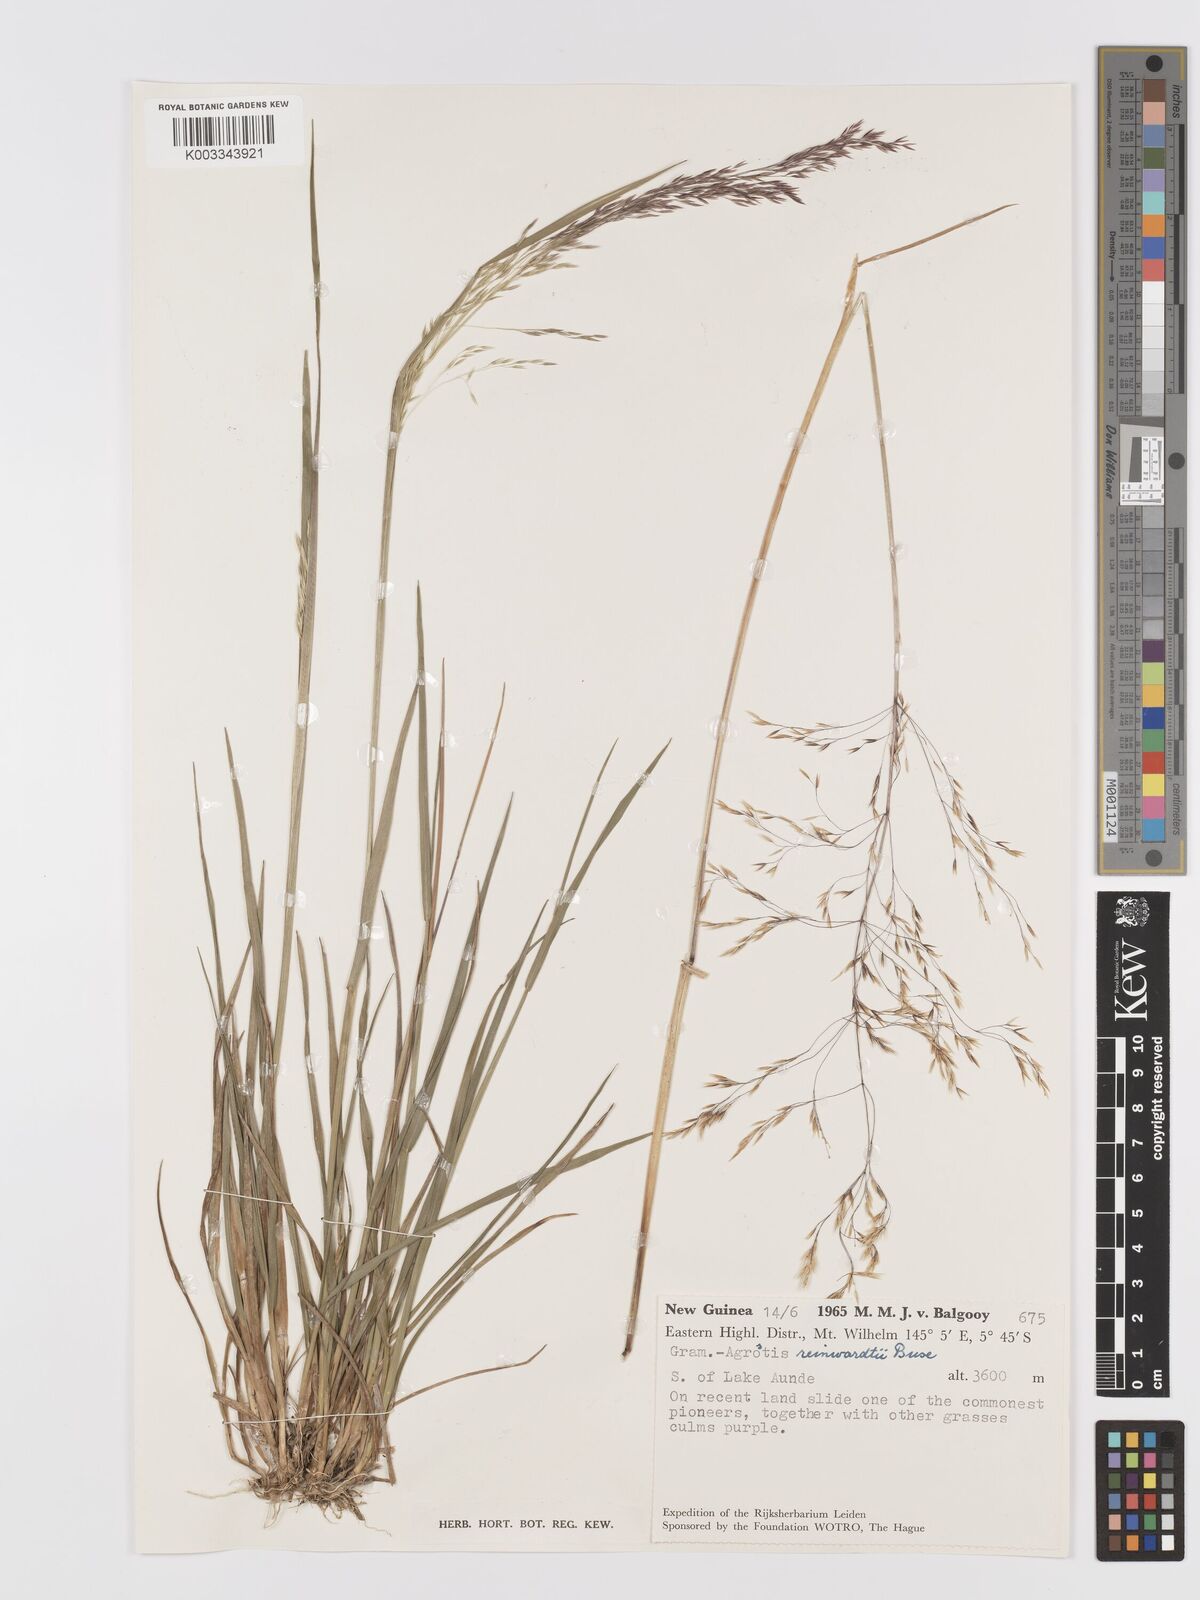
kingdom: Plantae
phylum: Tracheophyta
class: Liliopsida
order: Poales
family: Poaceae
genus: Agrostis
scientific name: Agrostis infirma
